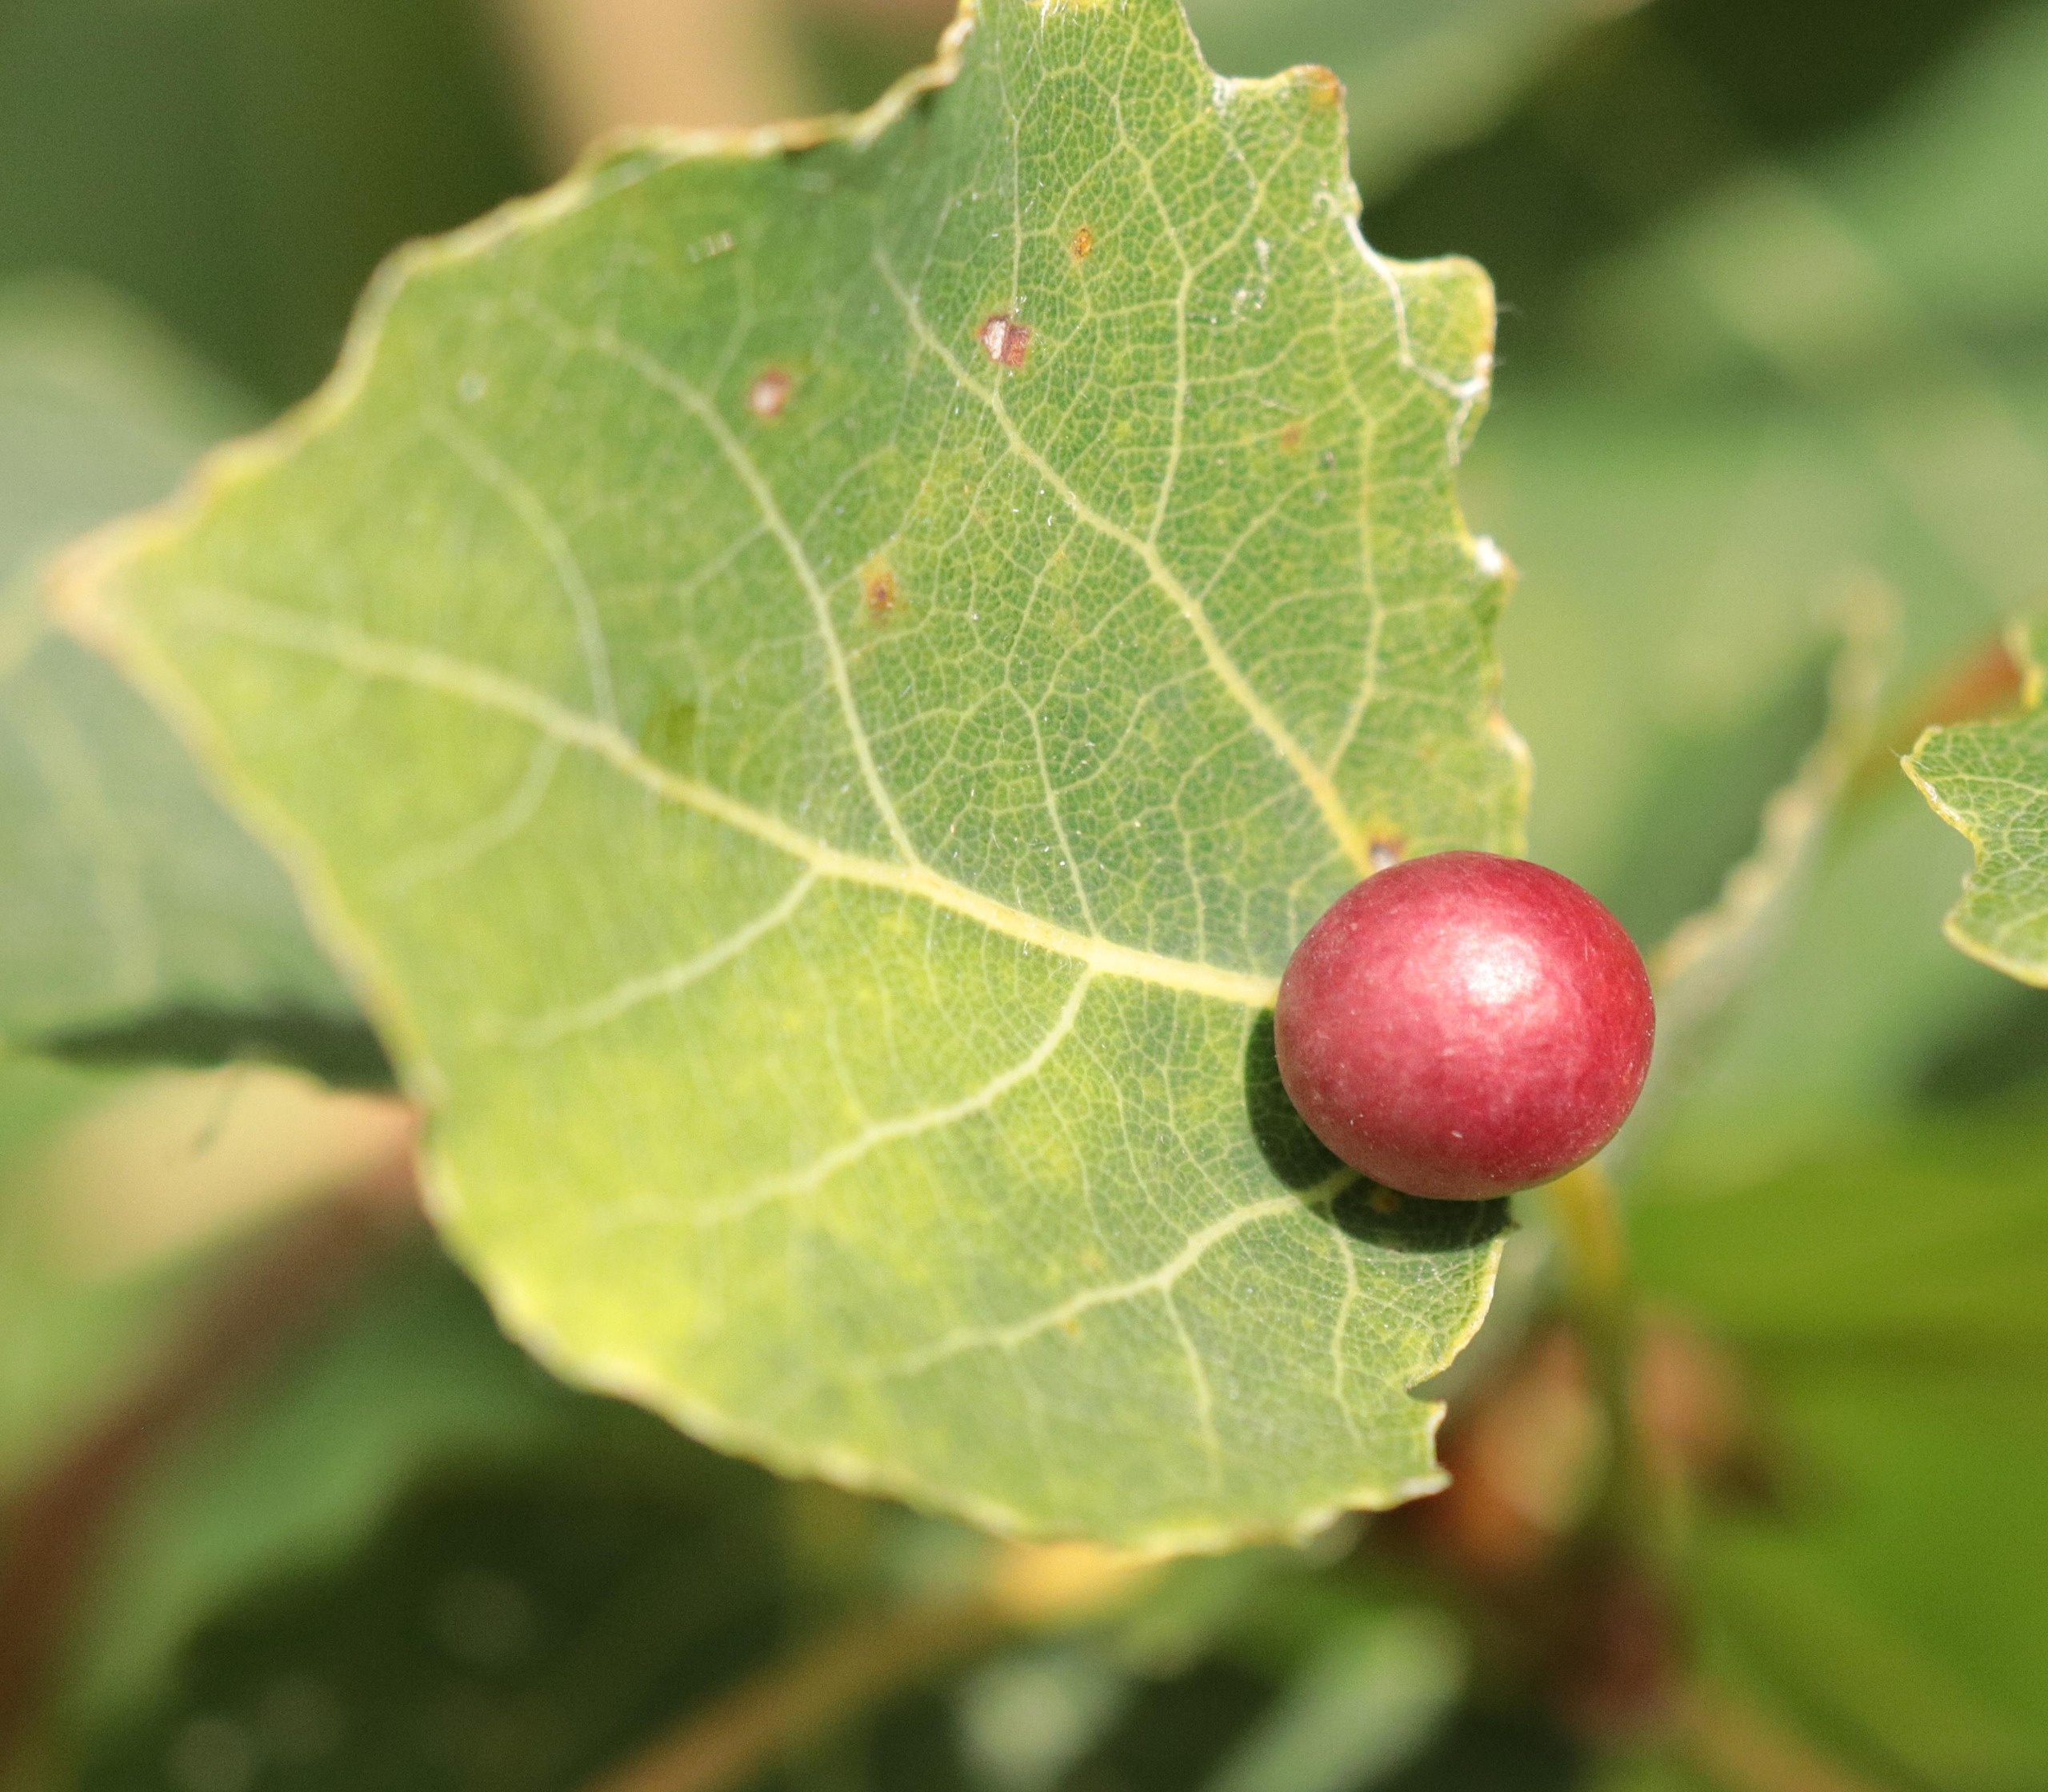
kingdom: Animalia
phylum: Arthropoda
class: Insecta
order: Diptera
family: Cecidomyiidae
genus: Harmandiola
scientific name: Harmandiola tremulae
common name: Aspekuglegalmyg
